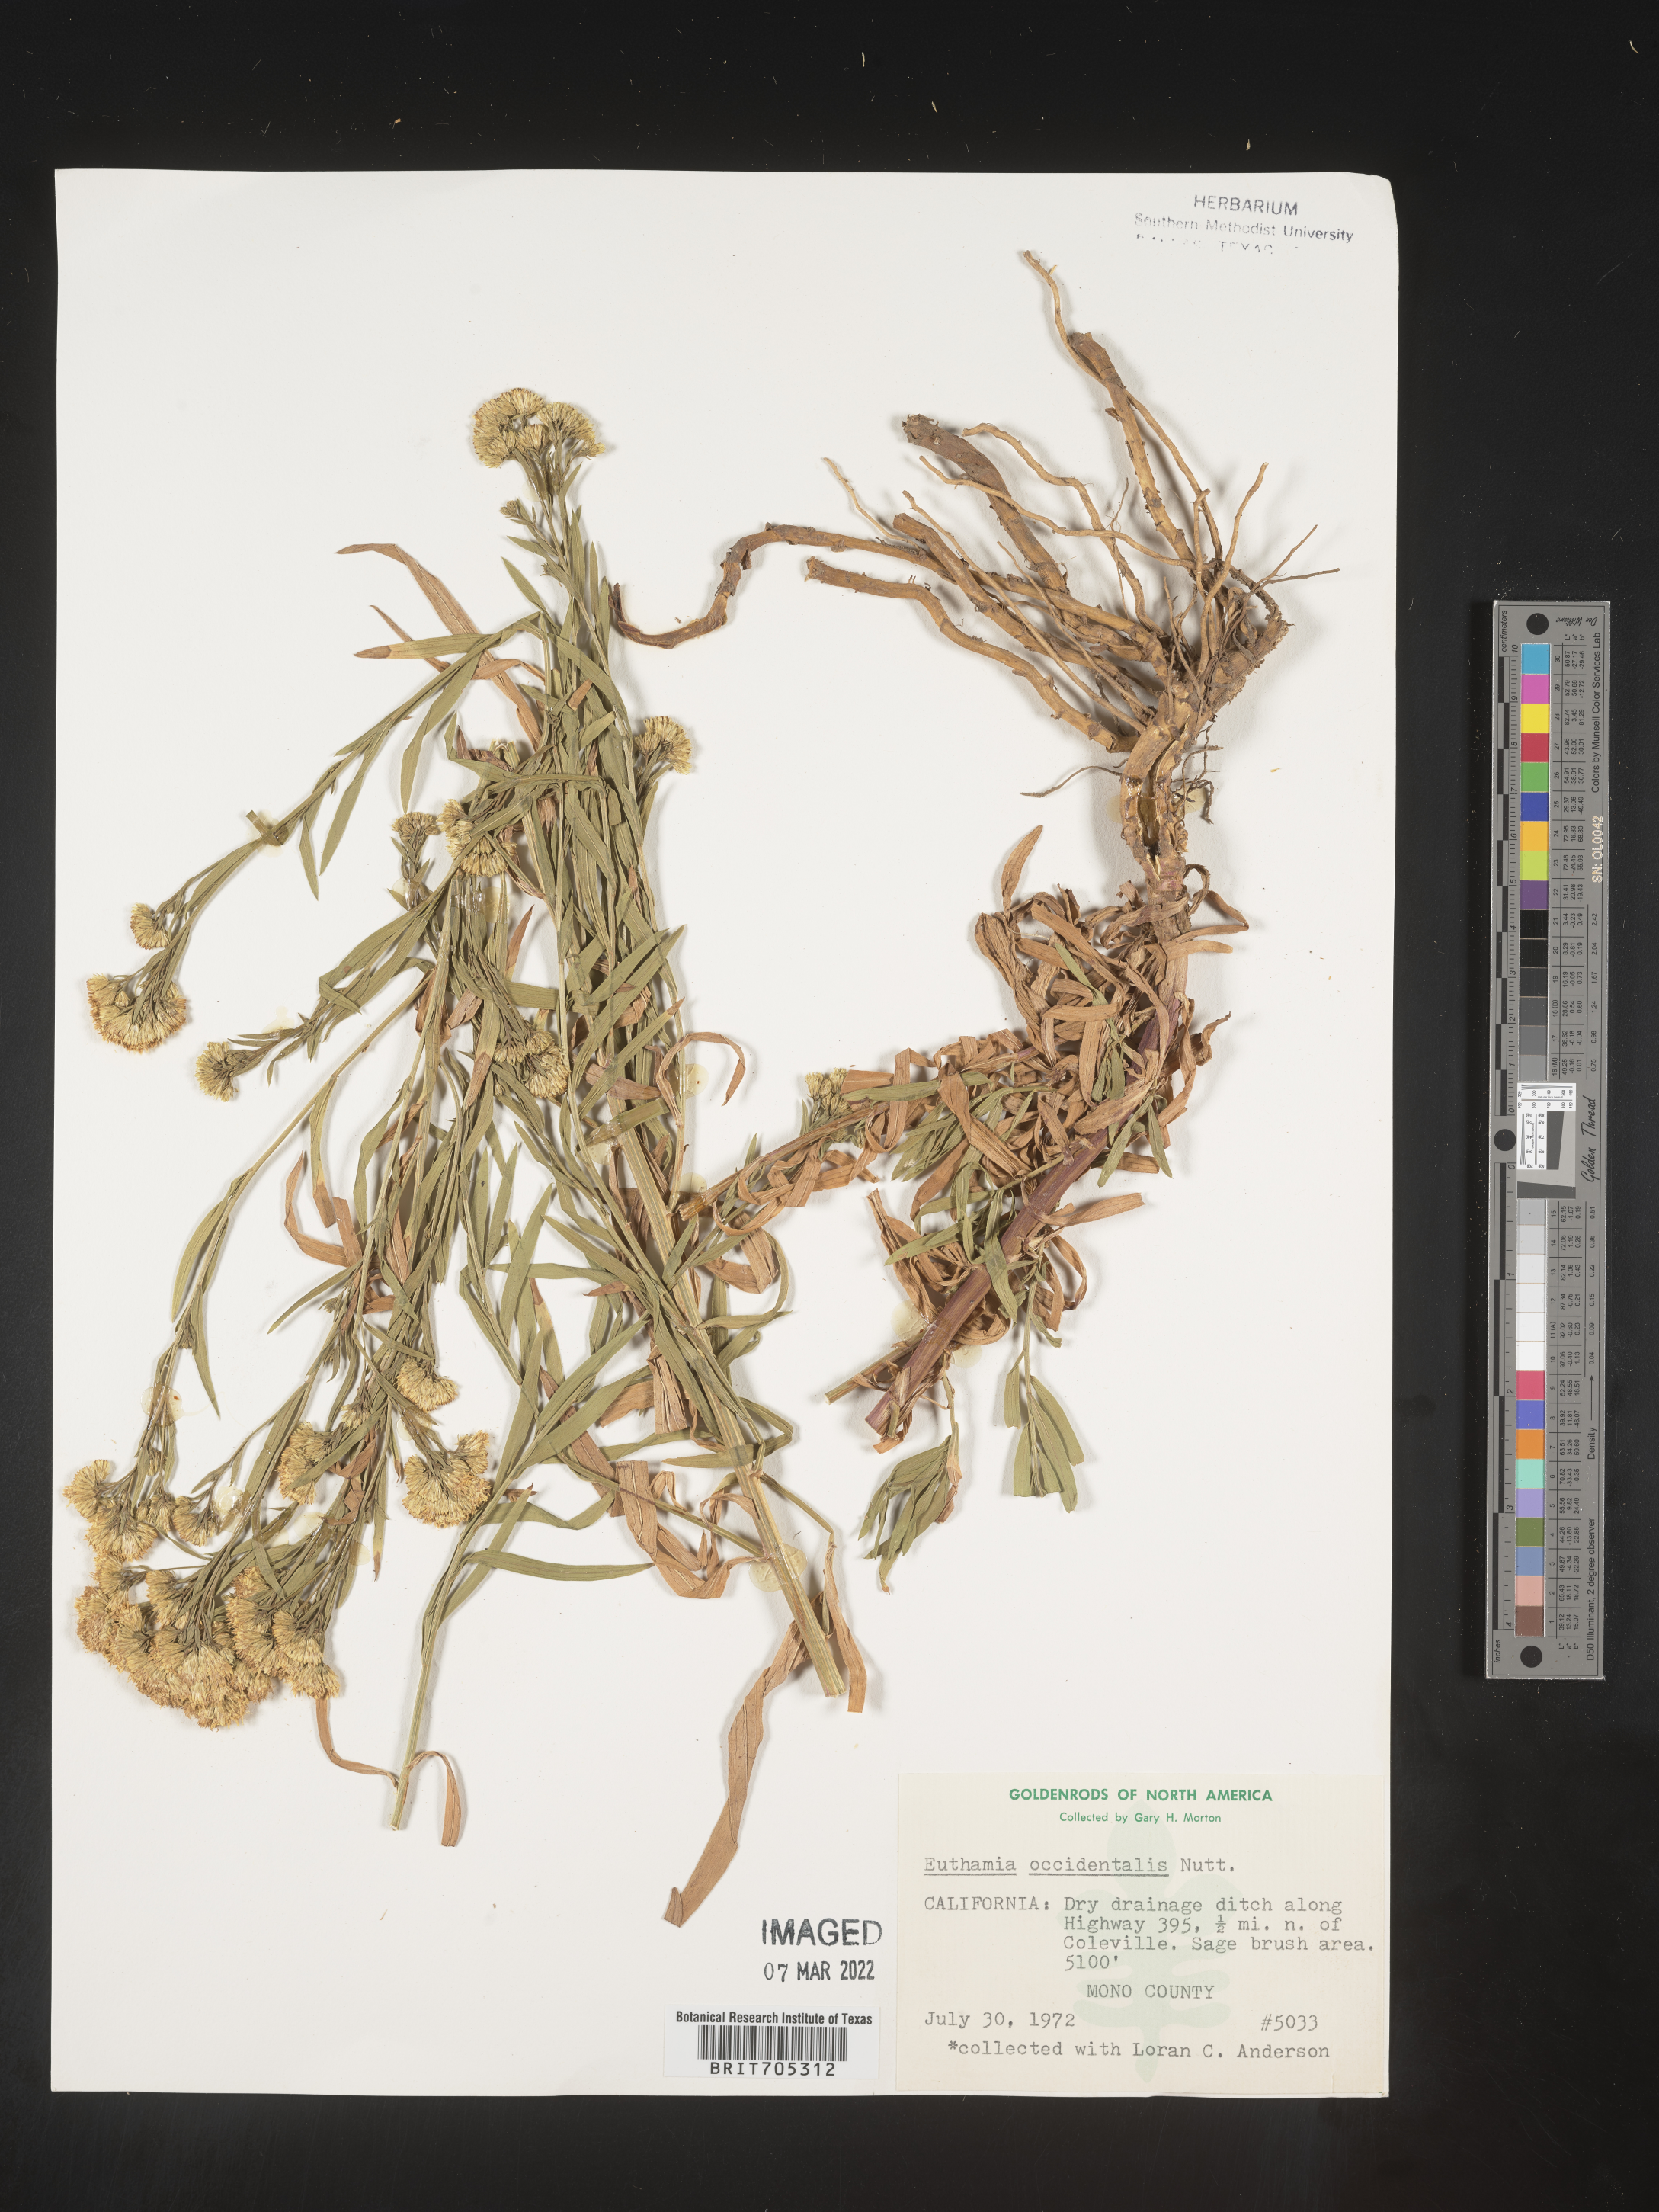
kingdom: Plantae
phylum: Tracheophyta
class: Magnoliopsida
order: Asterales
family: Asteraceae
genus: Euthamia
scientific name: Euthamia occidentalis
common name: Western goldentop
